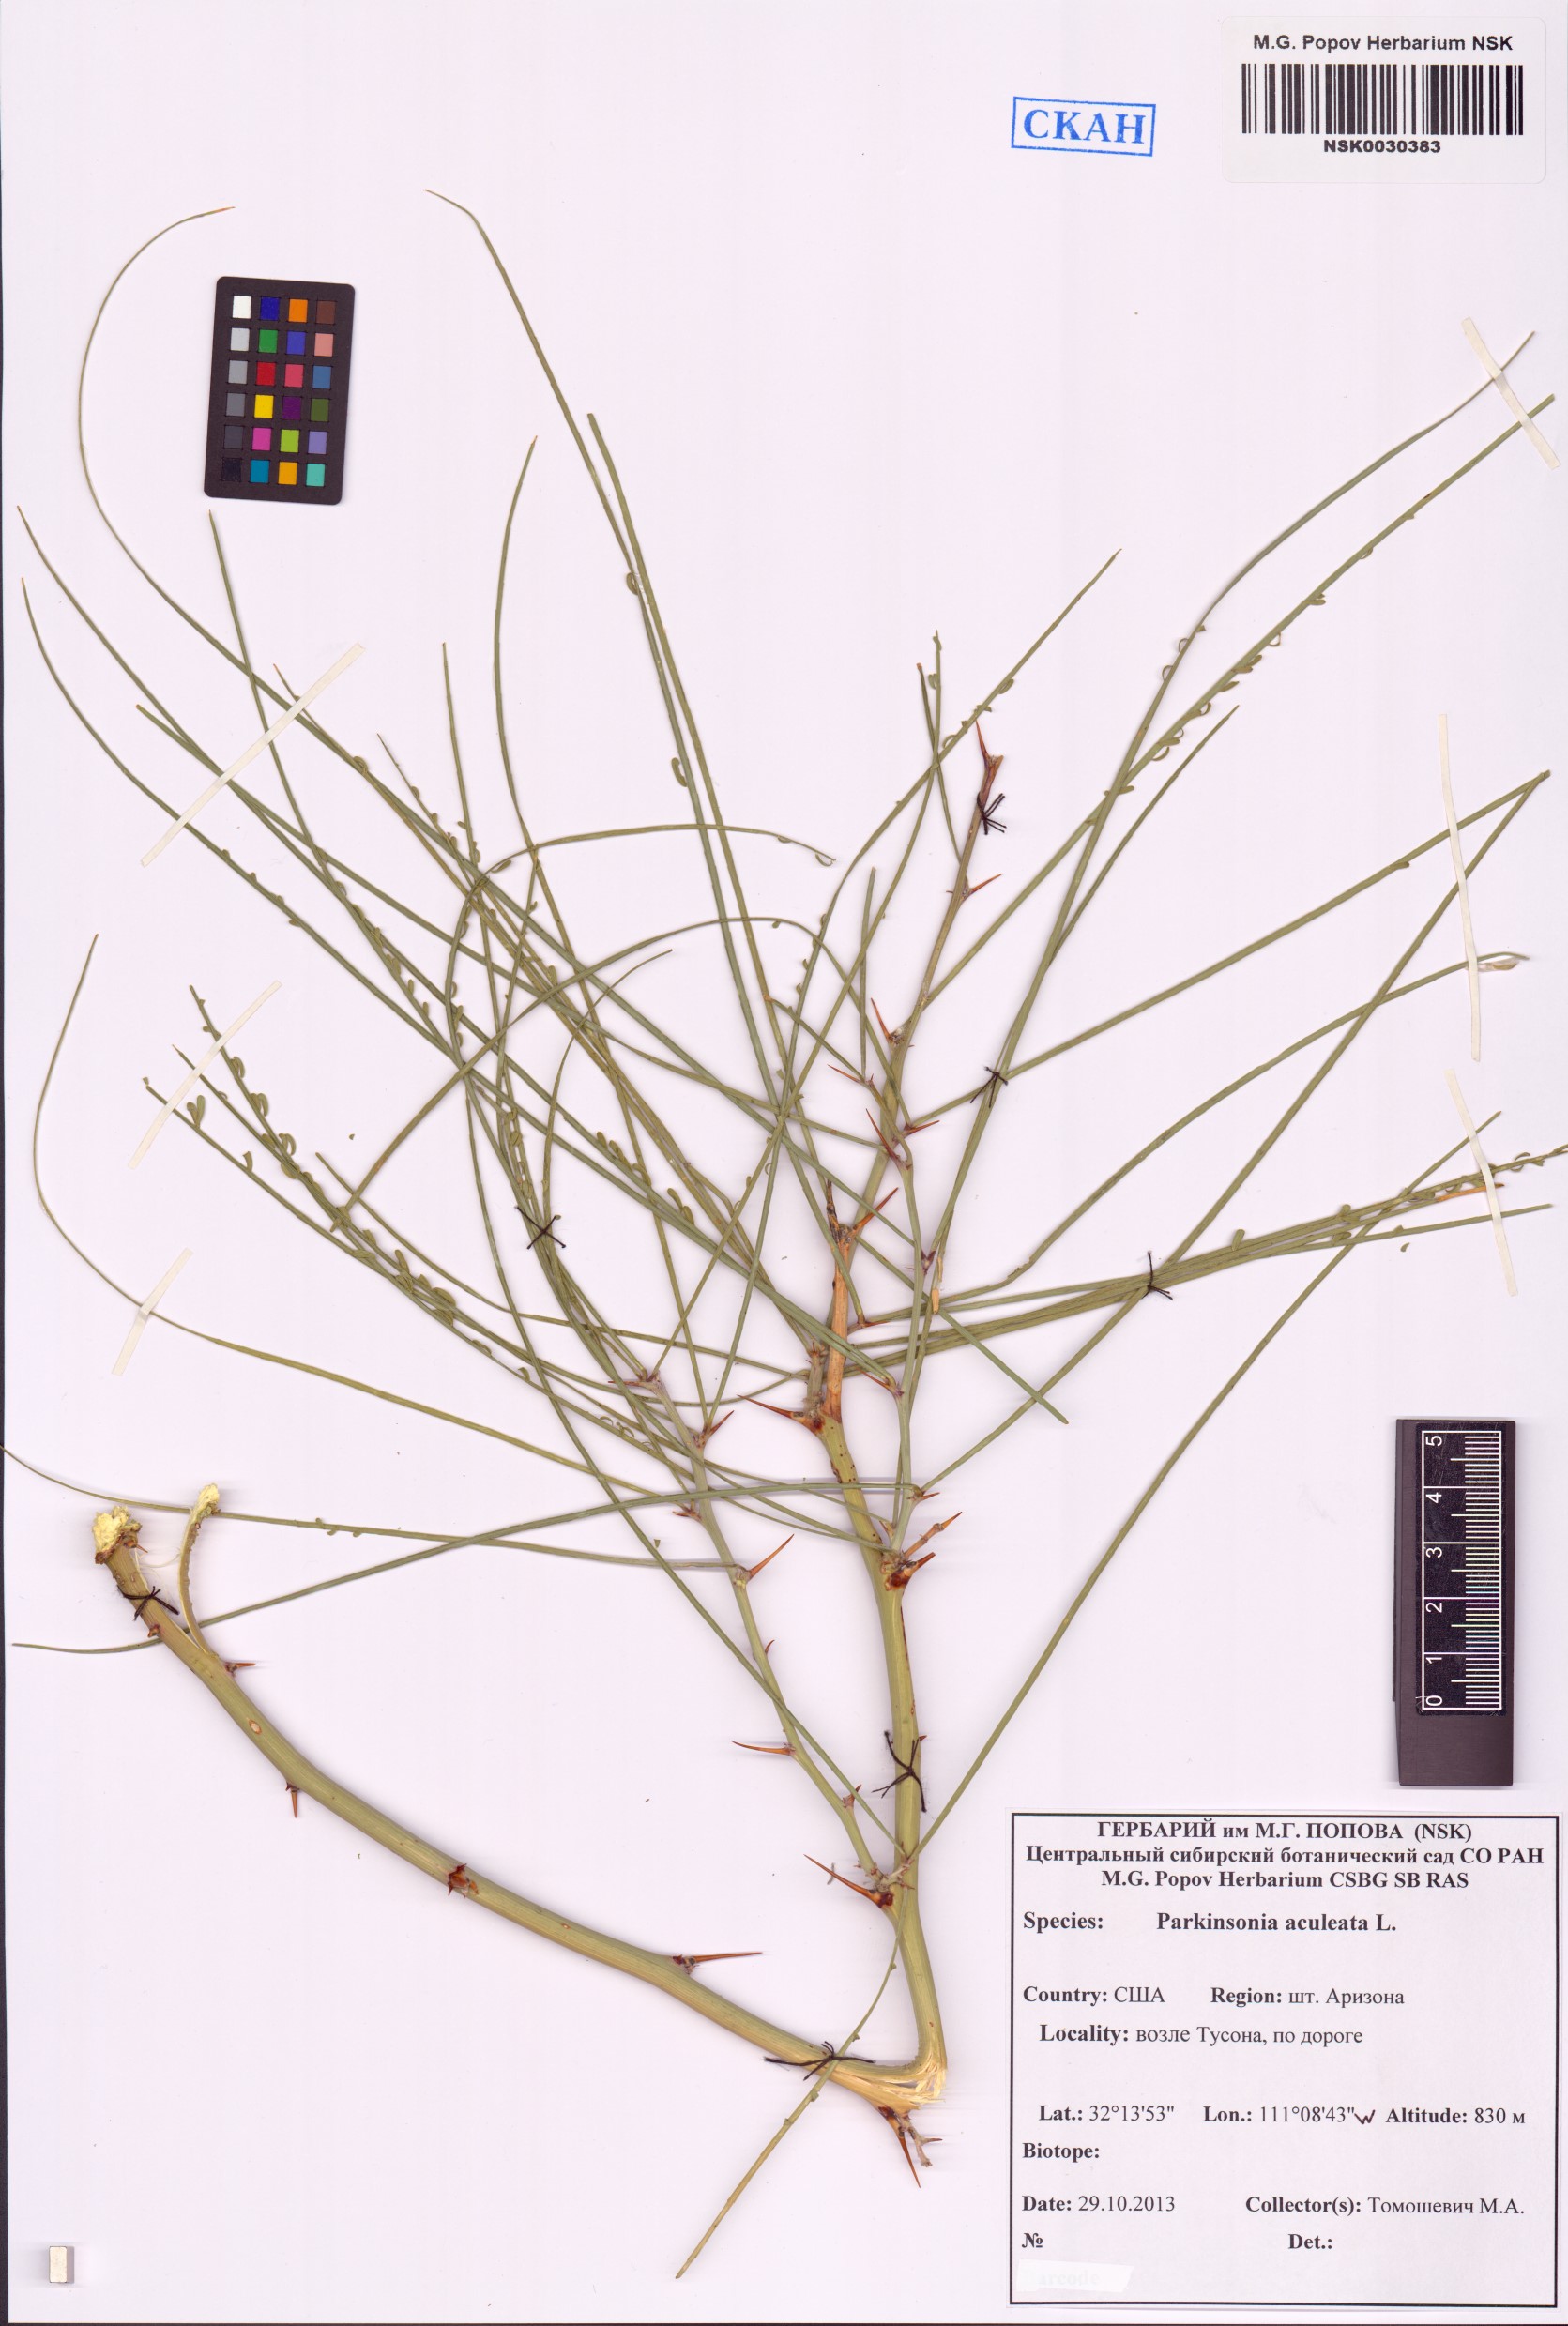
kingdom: Plantae
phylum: Tracheophyta
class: Magnoliopsida
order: Fabales
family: Fabaceae
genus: Parkinsonia
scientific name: Parkinsonia aculeata
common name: Jerusalem thorn
